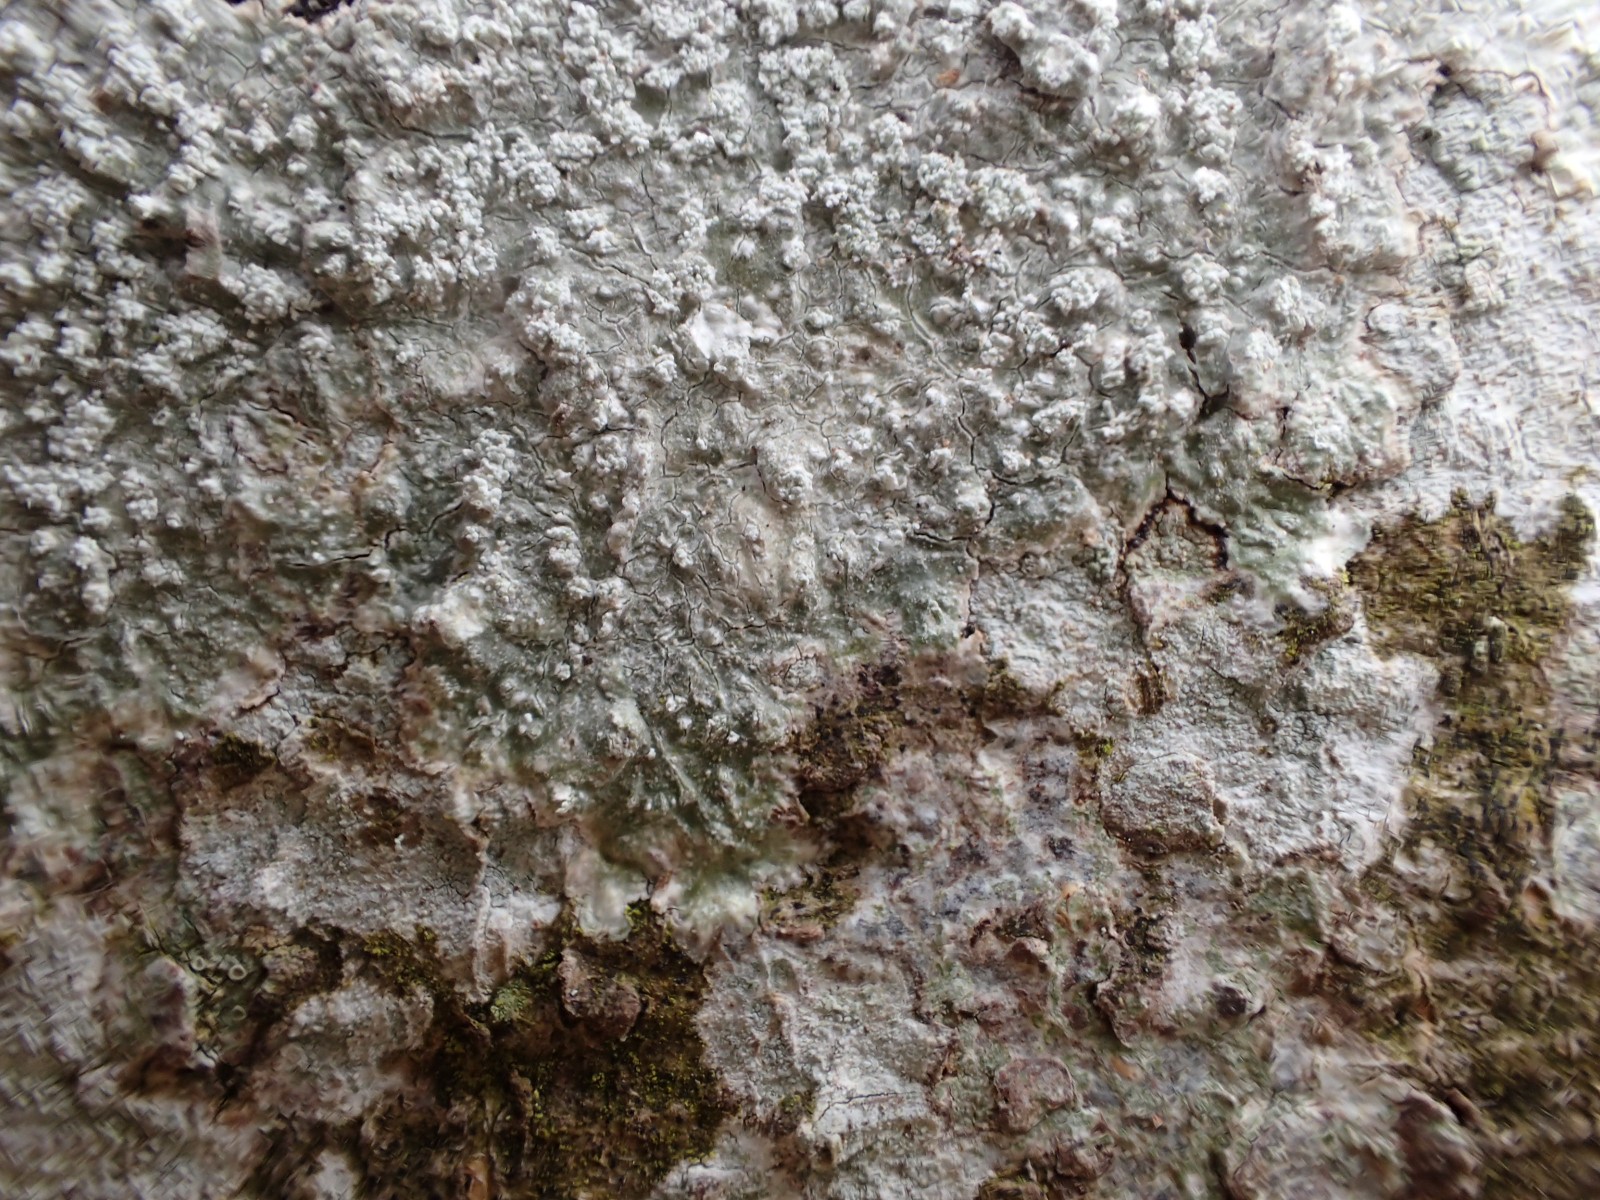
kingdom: Fungi
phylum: Ascomycota
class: Lecanoromycetes
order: Pertusariales
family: Pertusariaceae
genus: Lepra
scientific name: Lepra albescens
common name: hvidmelet prikvortelav
